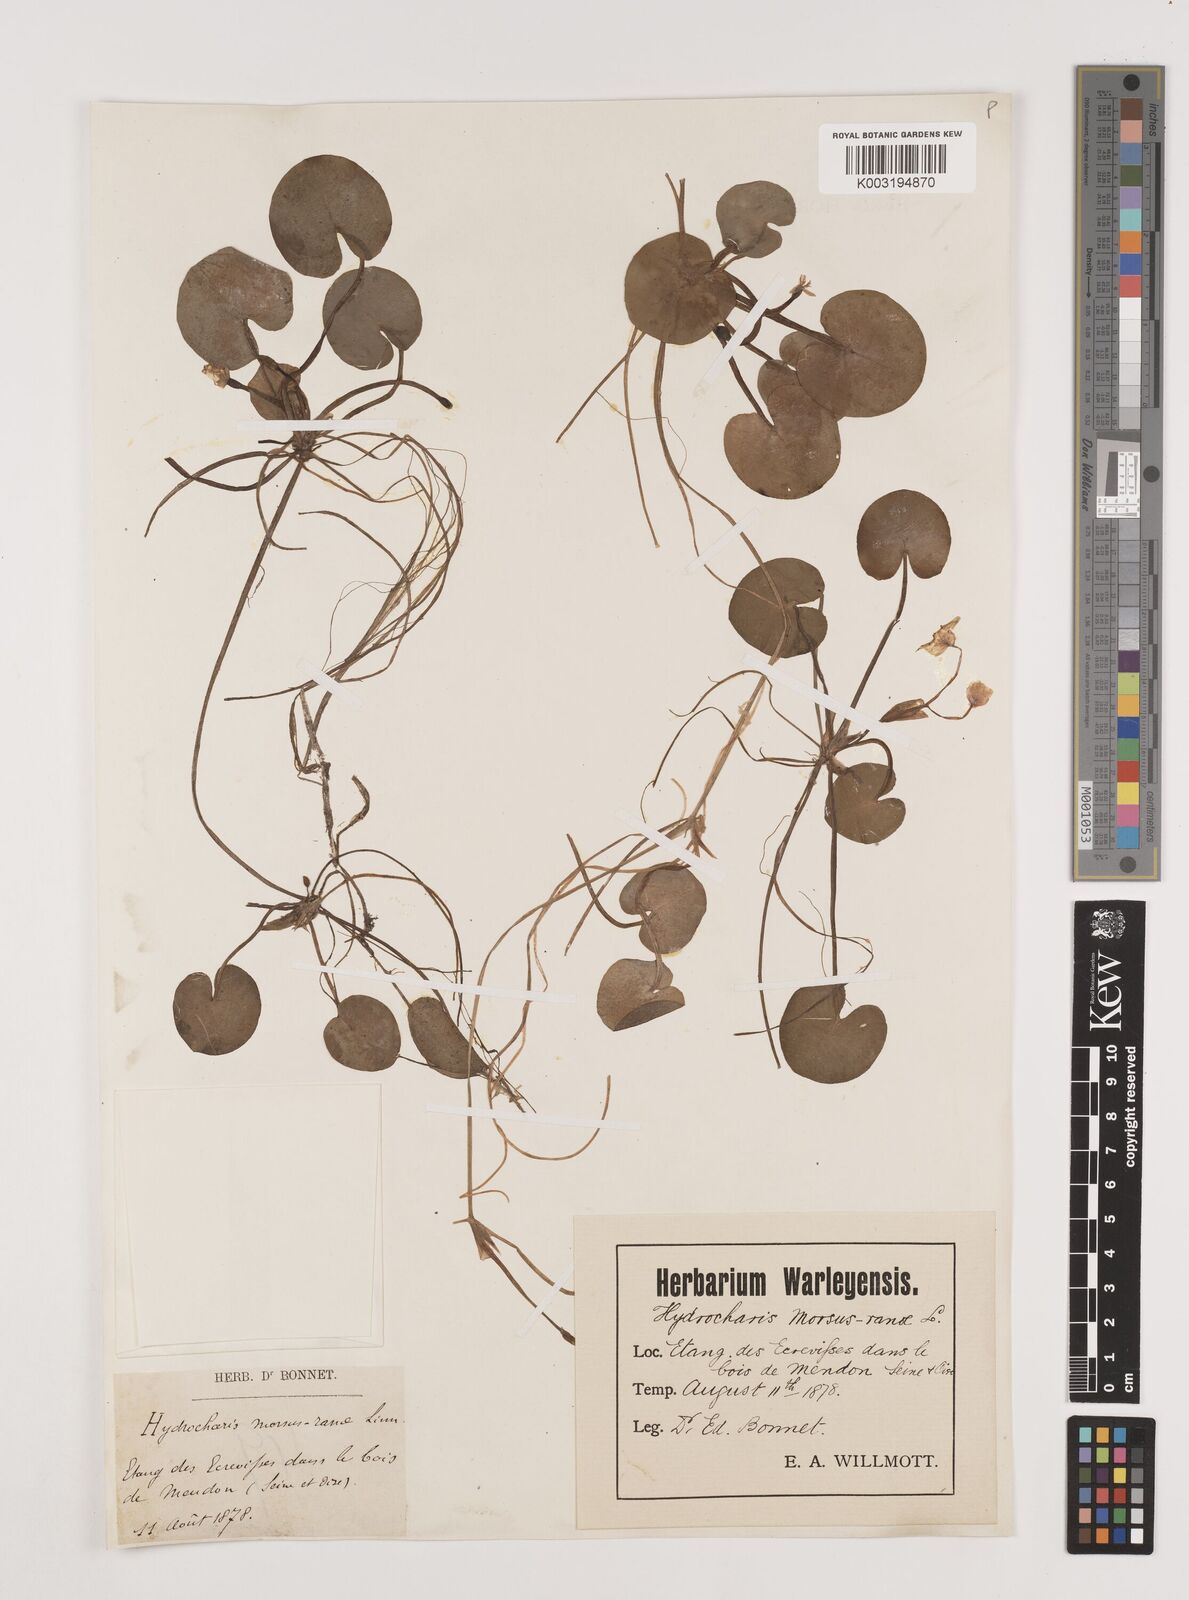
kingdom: Plantae
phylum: Tracheophyta
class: Liliopsida
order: Alismatales
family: Hydrocharitaceae
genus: Hydrocharis
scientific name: Hydrocharis morsus-ranae
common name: Frogbit
